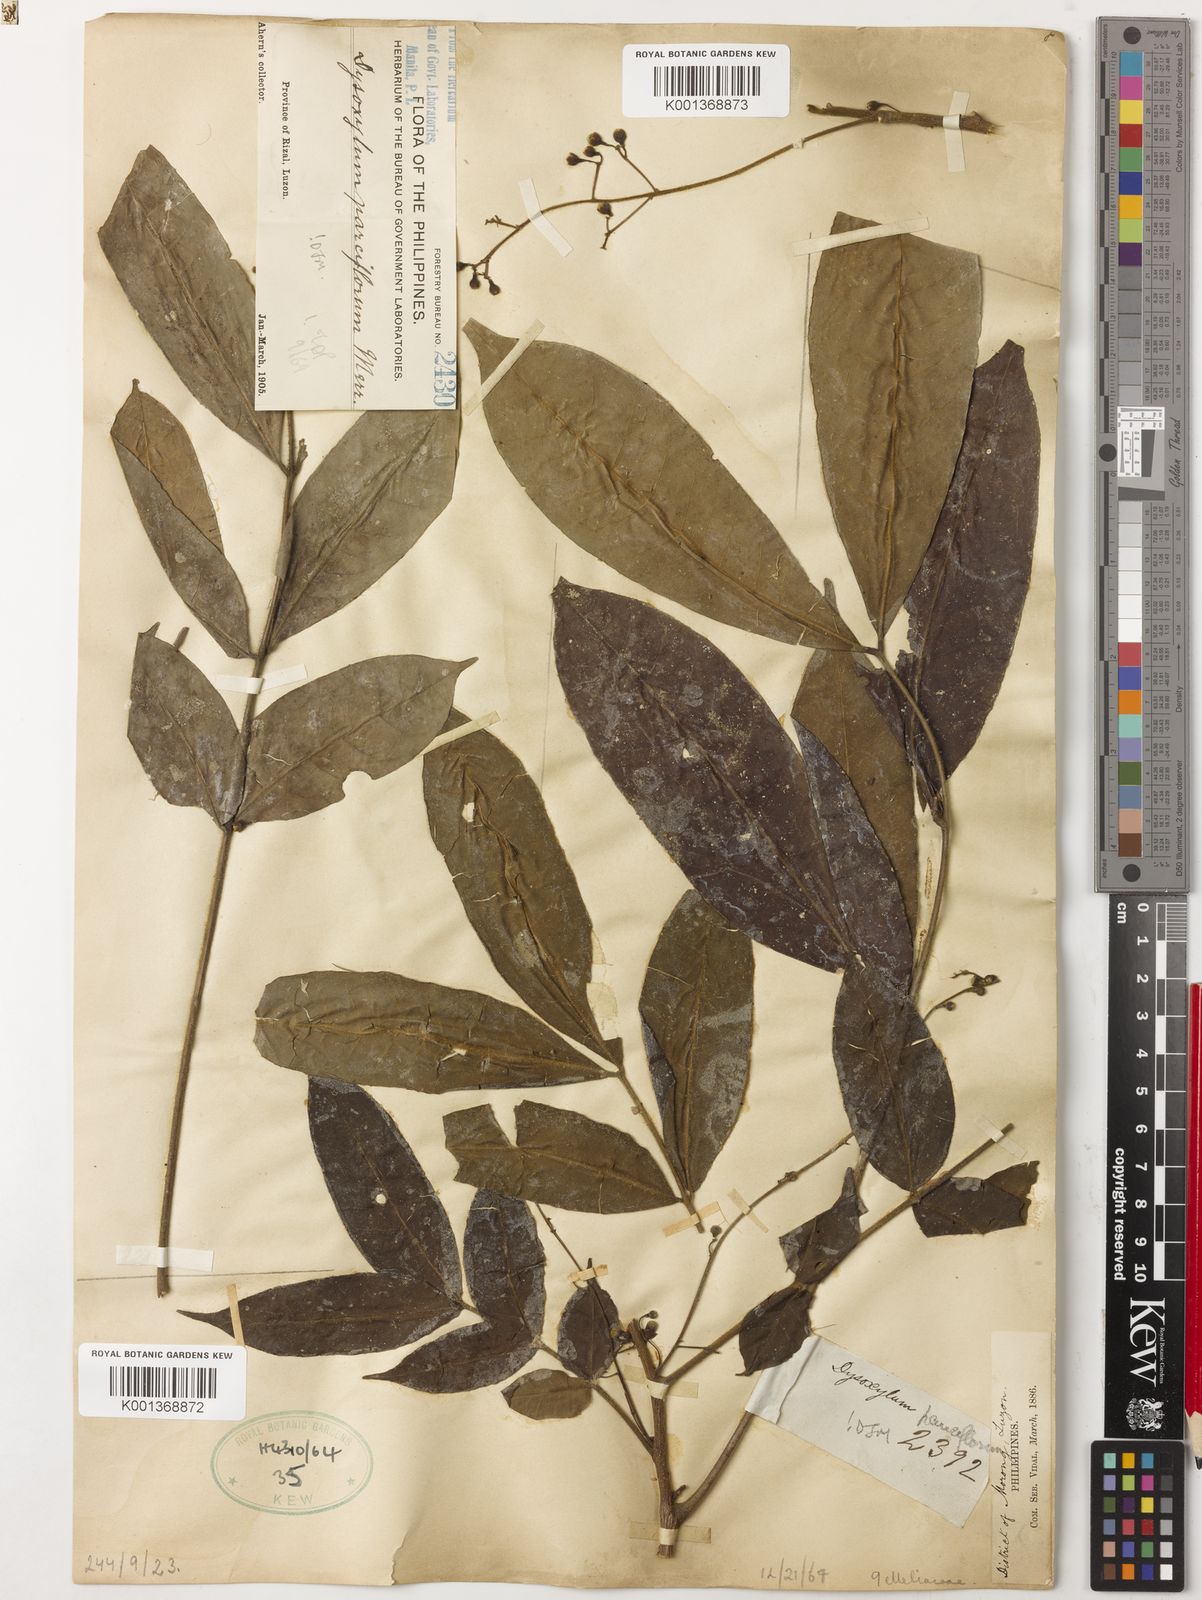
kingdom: Plantae
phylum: Tracheophyta
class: Magnoliopsida
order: Sapindales
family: Meliaceae
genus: Didymocheton
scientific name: Didymocheton pauciflorus
